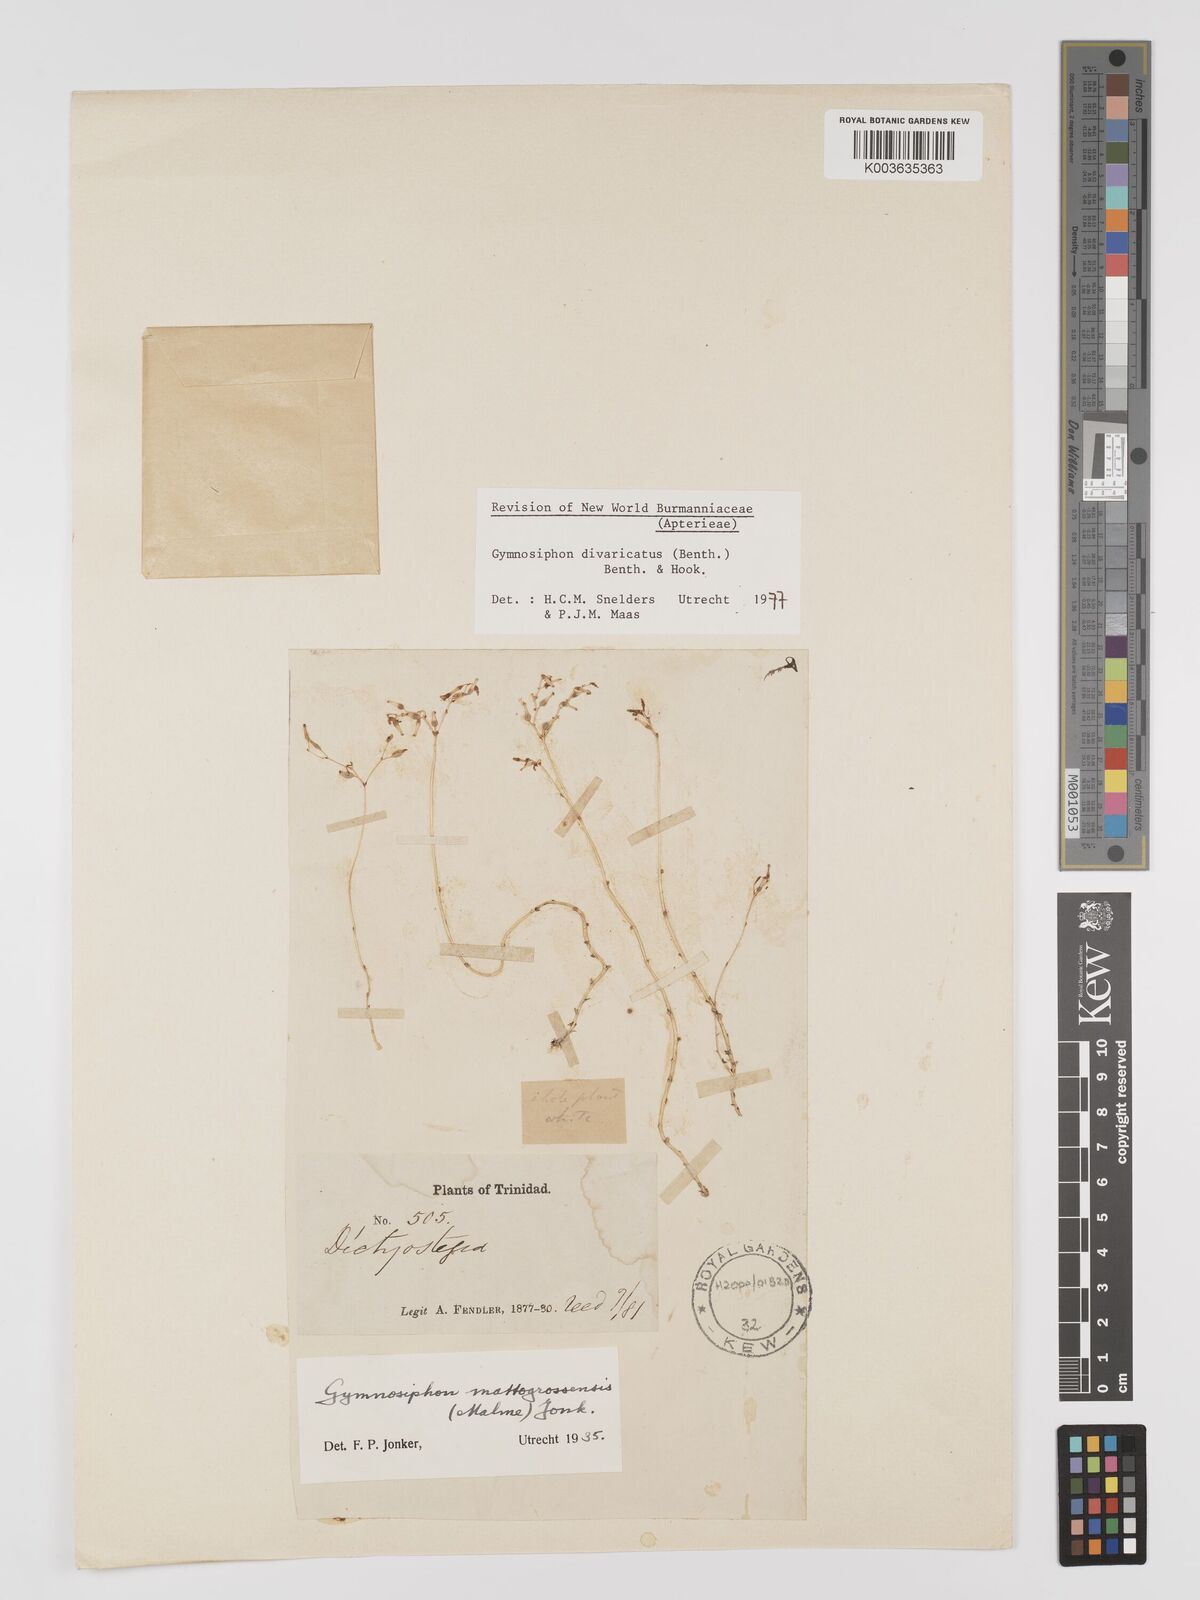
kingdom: Plantae
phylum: Tracheophyta
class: Liliopsida
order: Dioscoreales
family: Burmanniaceae
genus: Gymnosiphon
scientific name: Gymnosiphon divaricatus
